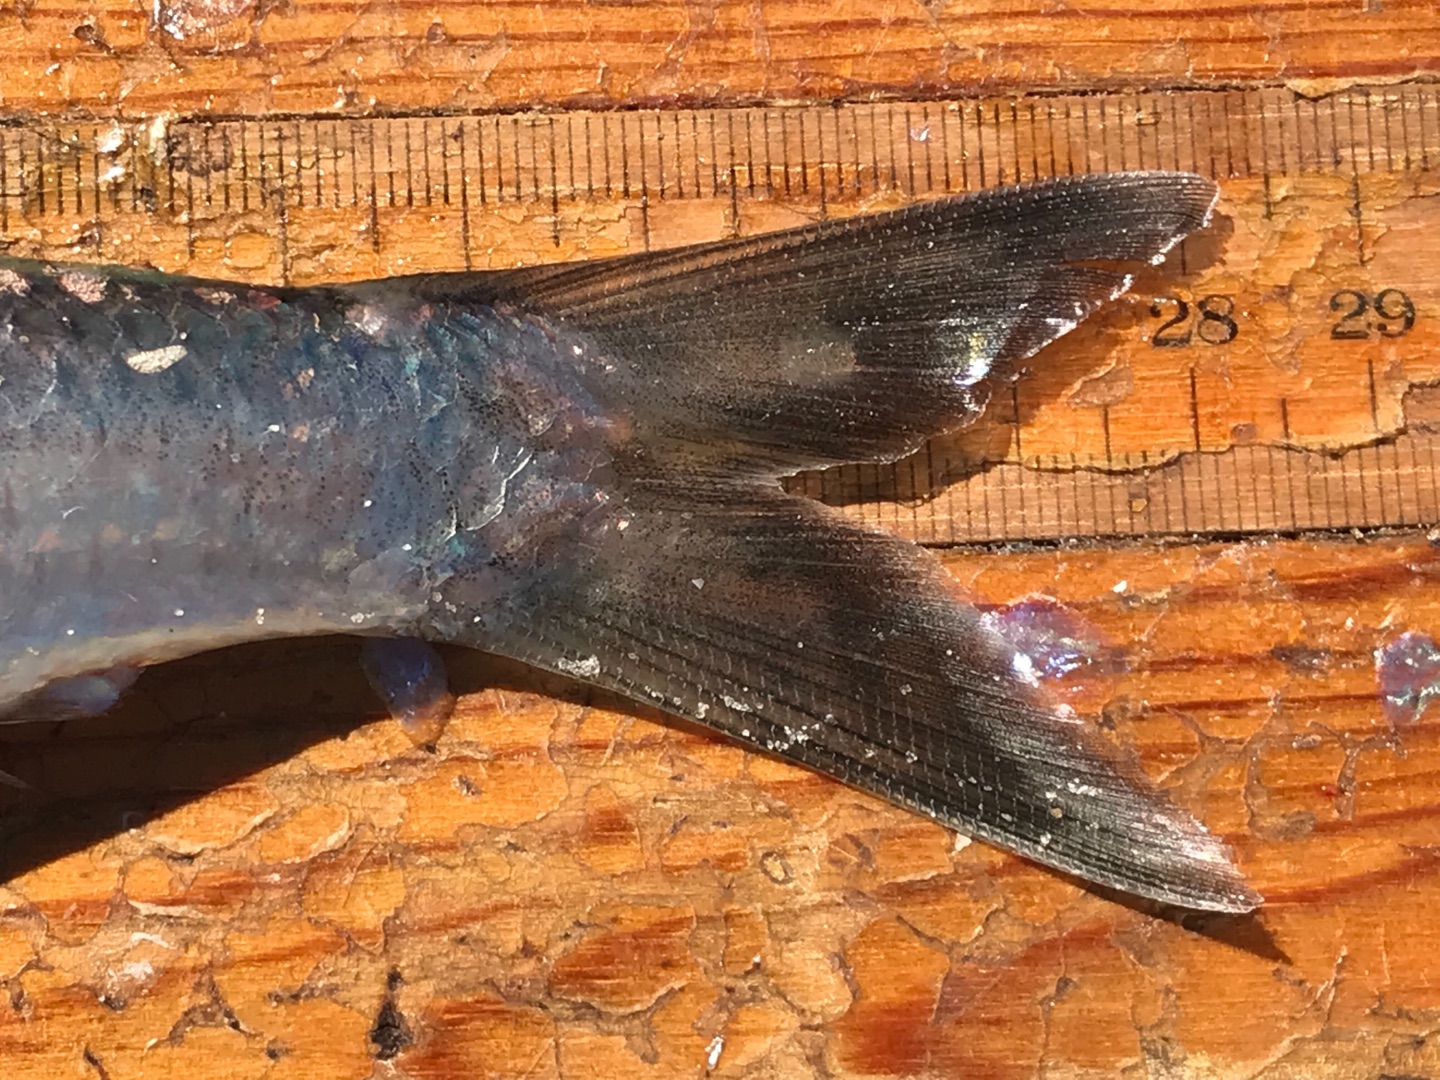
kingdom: Animalia
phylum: Chordata
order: Clupeiformes
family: Clupeidae
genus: Clupea
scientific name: Clupea harengus
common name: Sild
